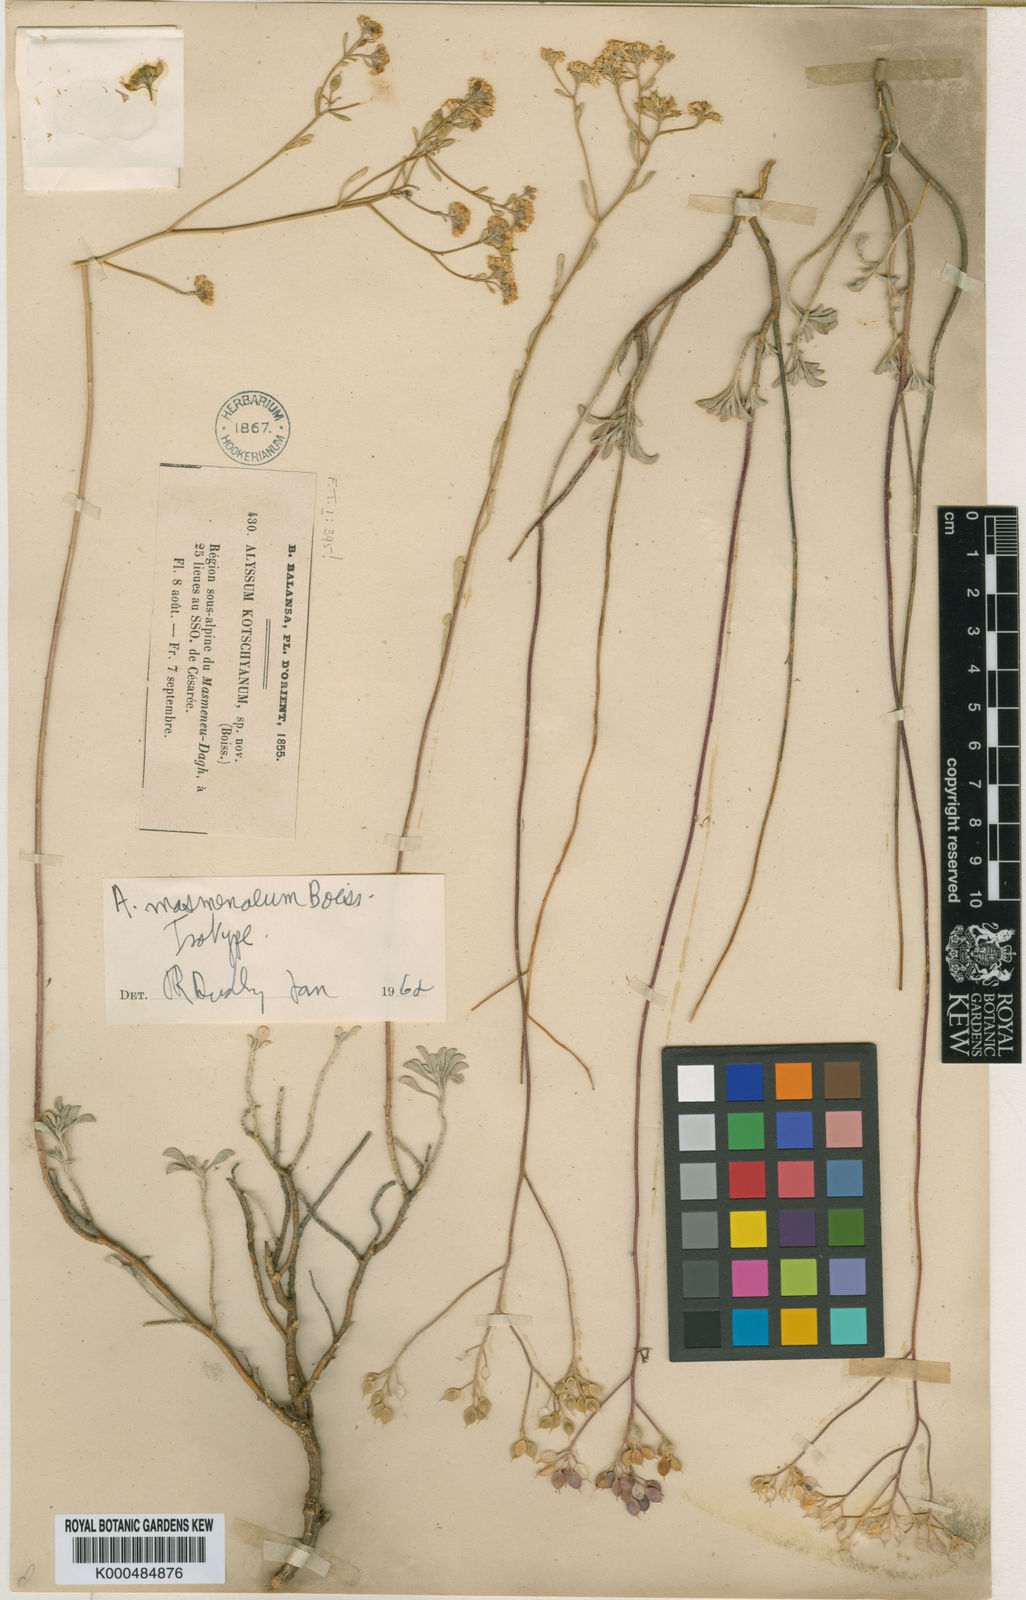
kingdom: Plantae
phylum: Tracheophyta
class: Magnoliopsida
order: Brassicales
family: Brassicaceae
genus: Odontarrhena
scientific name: Odontarrhena muralis
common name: Rock alyssum
